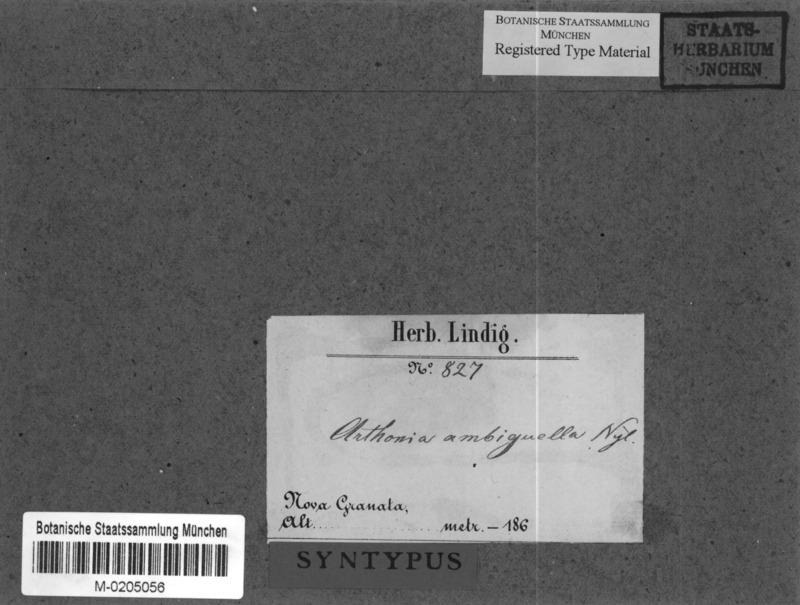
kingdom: Fungi
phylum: Ascomycota
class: Arthoniomycetes
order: Arthoniales
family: Arthoniaceae
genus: Arthothelium
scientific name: Arthothelium ambiguellum
